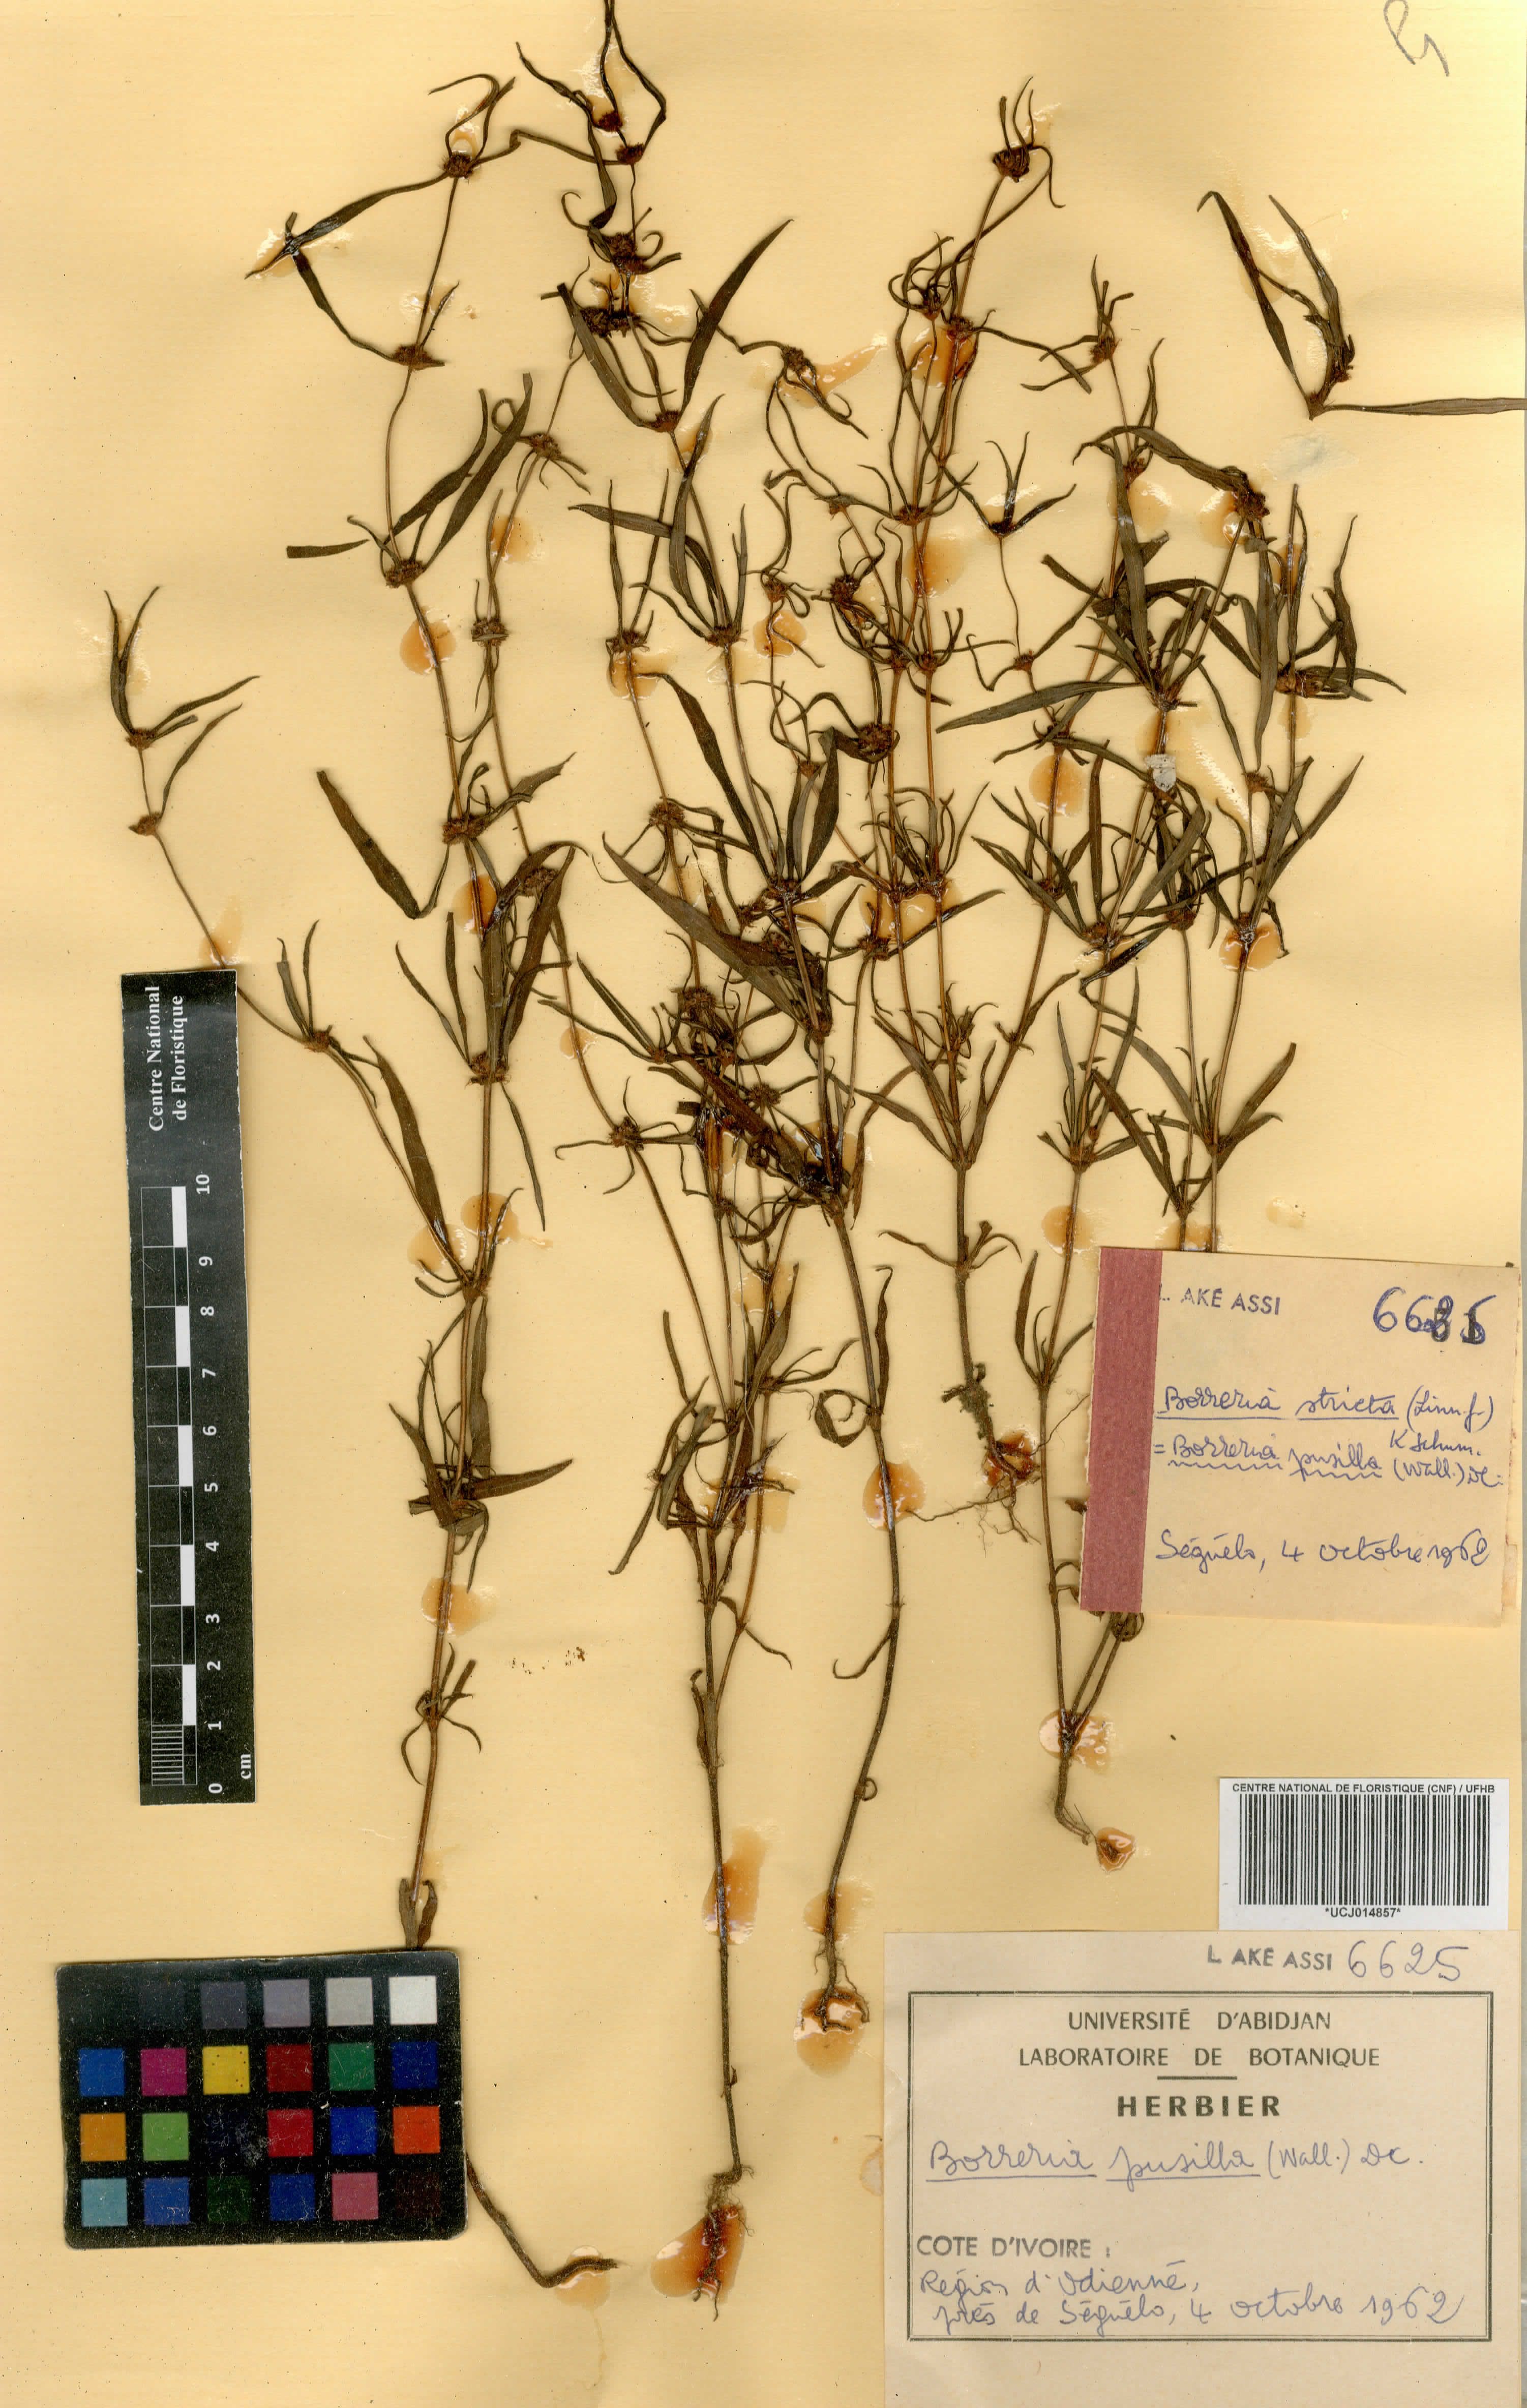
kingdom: Plantae
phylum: Tracheophyta
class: Magnoliopsida
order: Gentianales
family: Rubiaceae
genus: Spermacoce
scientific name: Spermacoce pusilla
